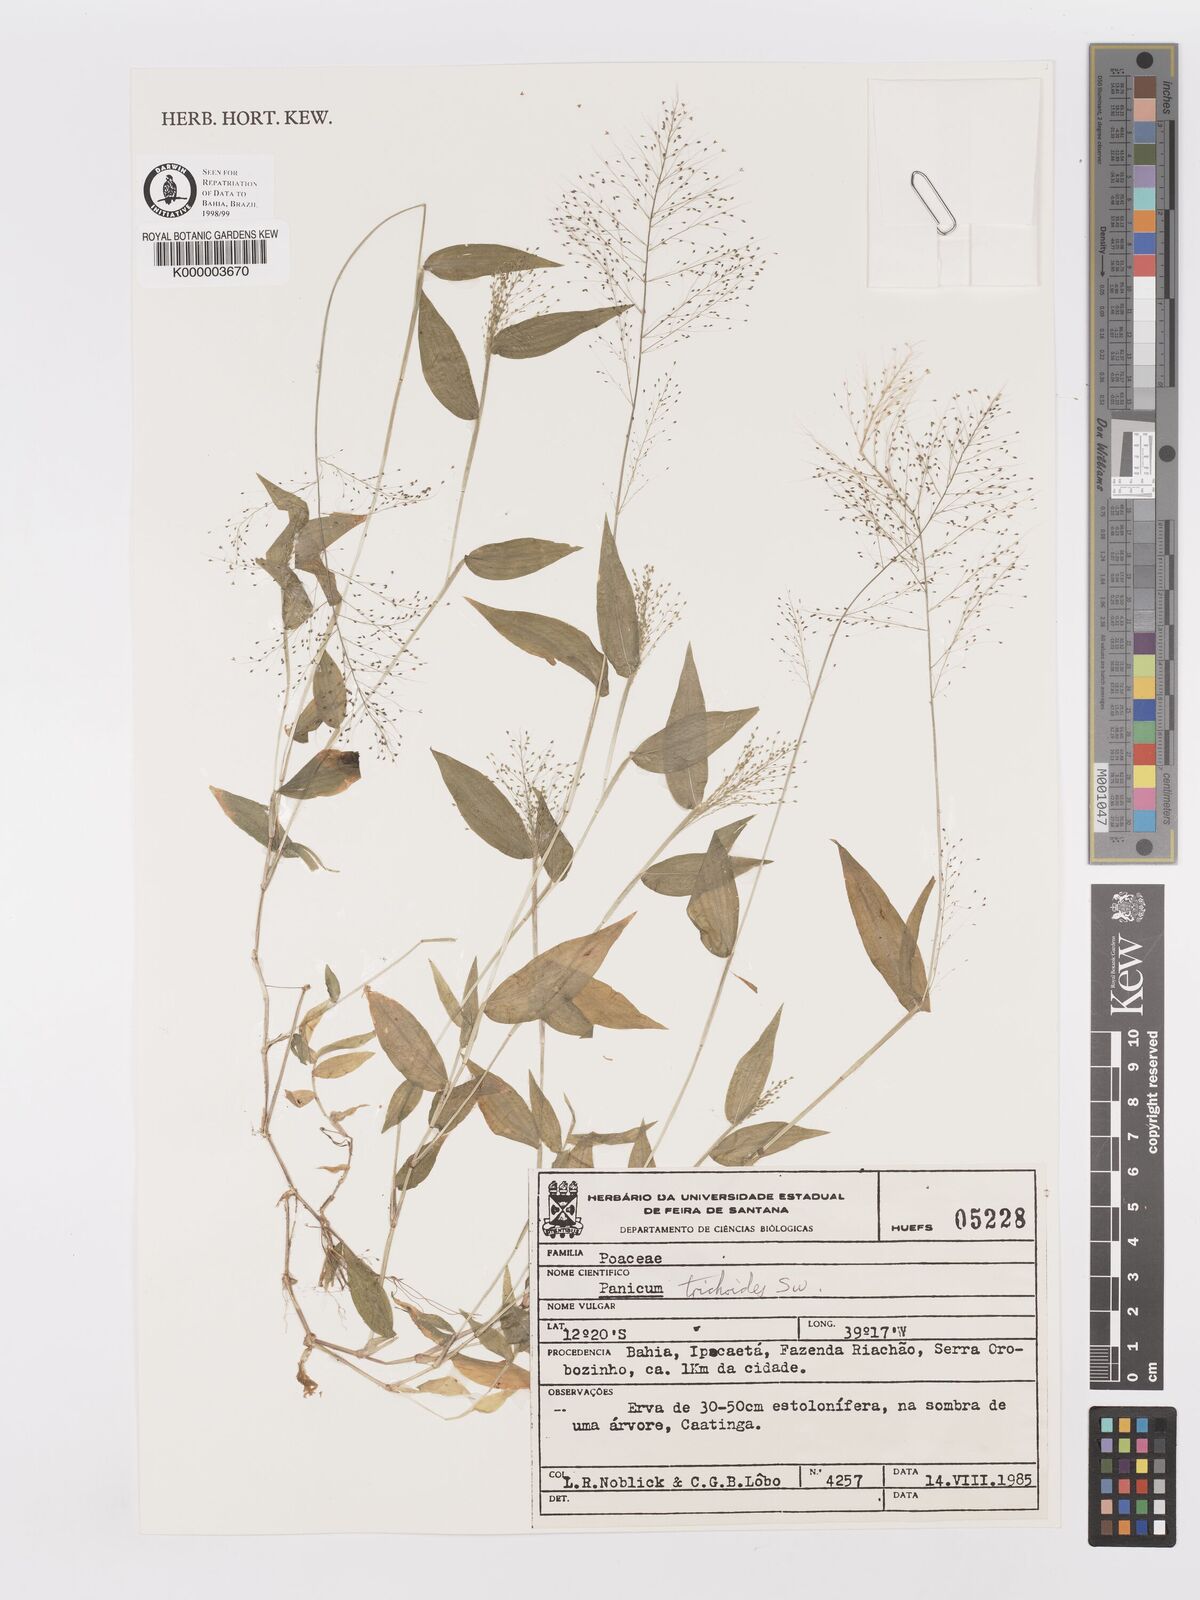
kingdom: Plantae
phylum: Tracheophyta
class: Liliopsida
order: Poales
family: Poaceae
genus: Panicum
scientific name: Panicum
